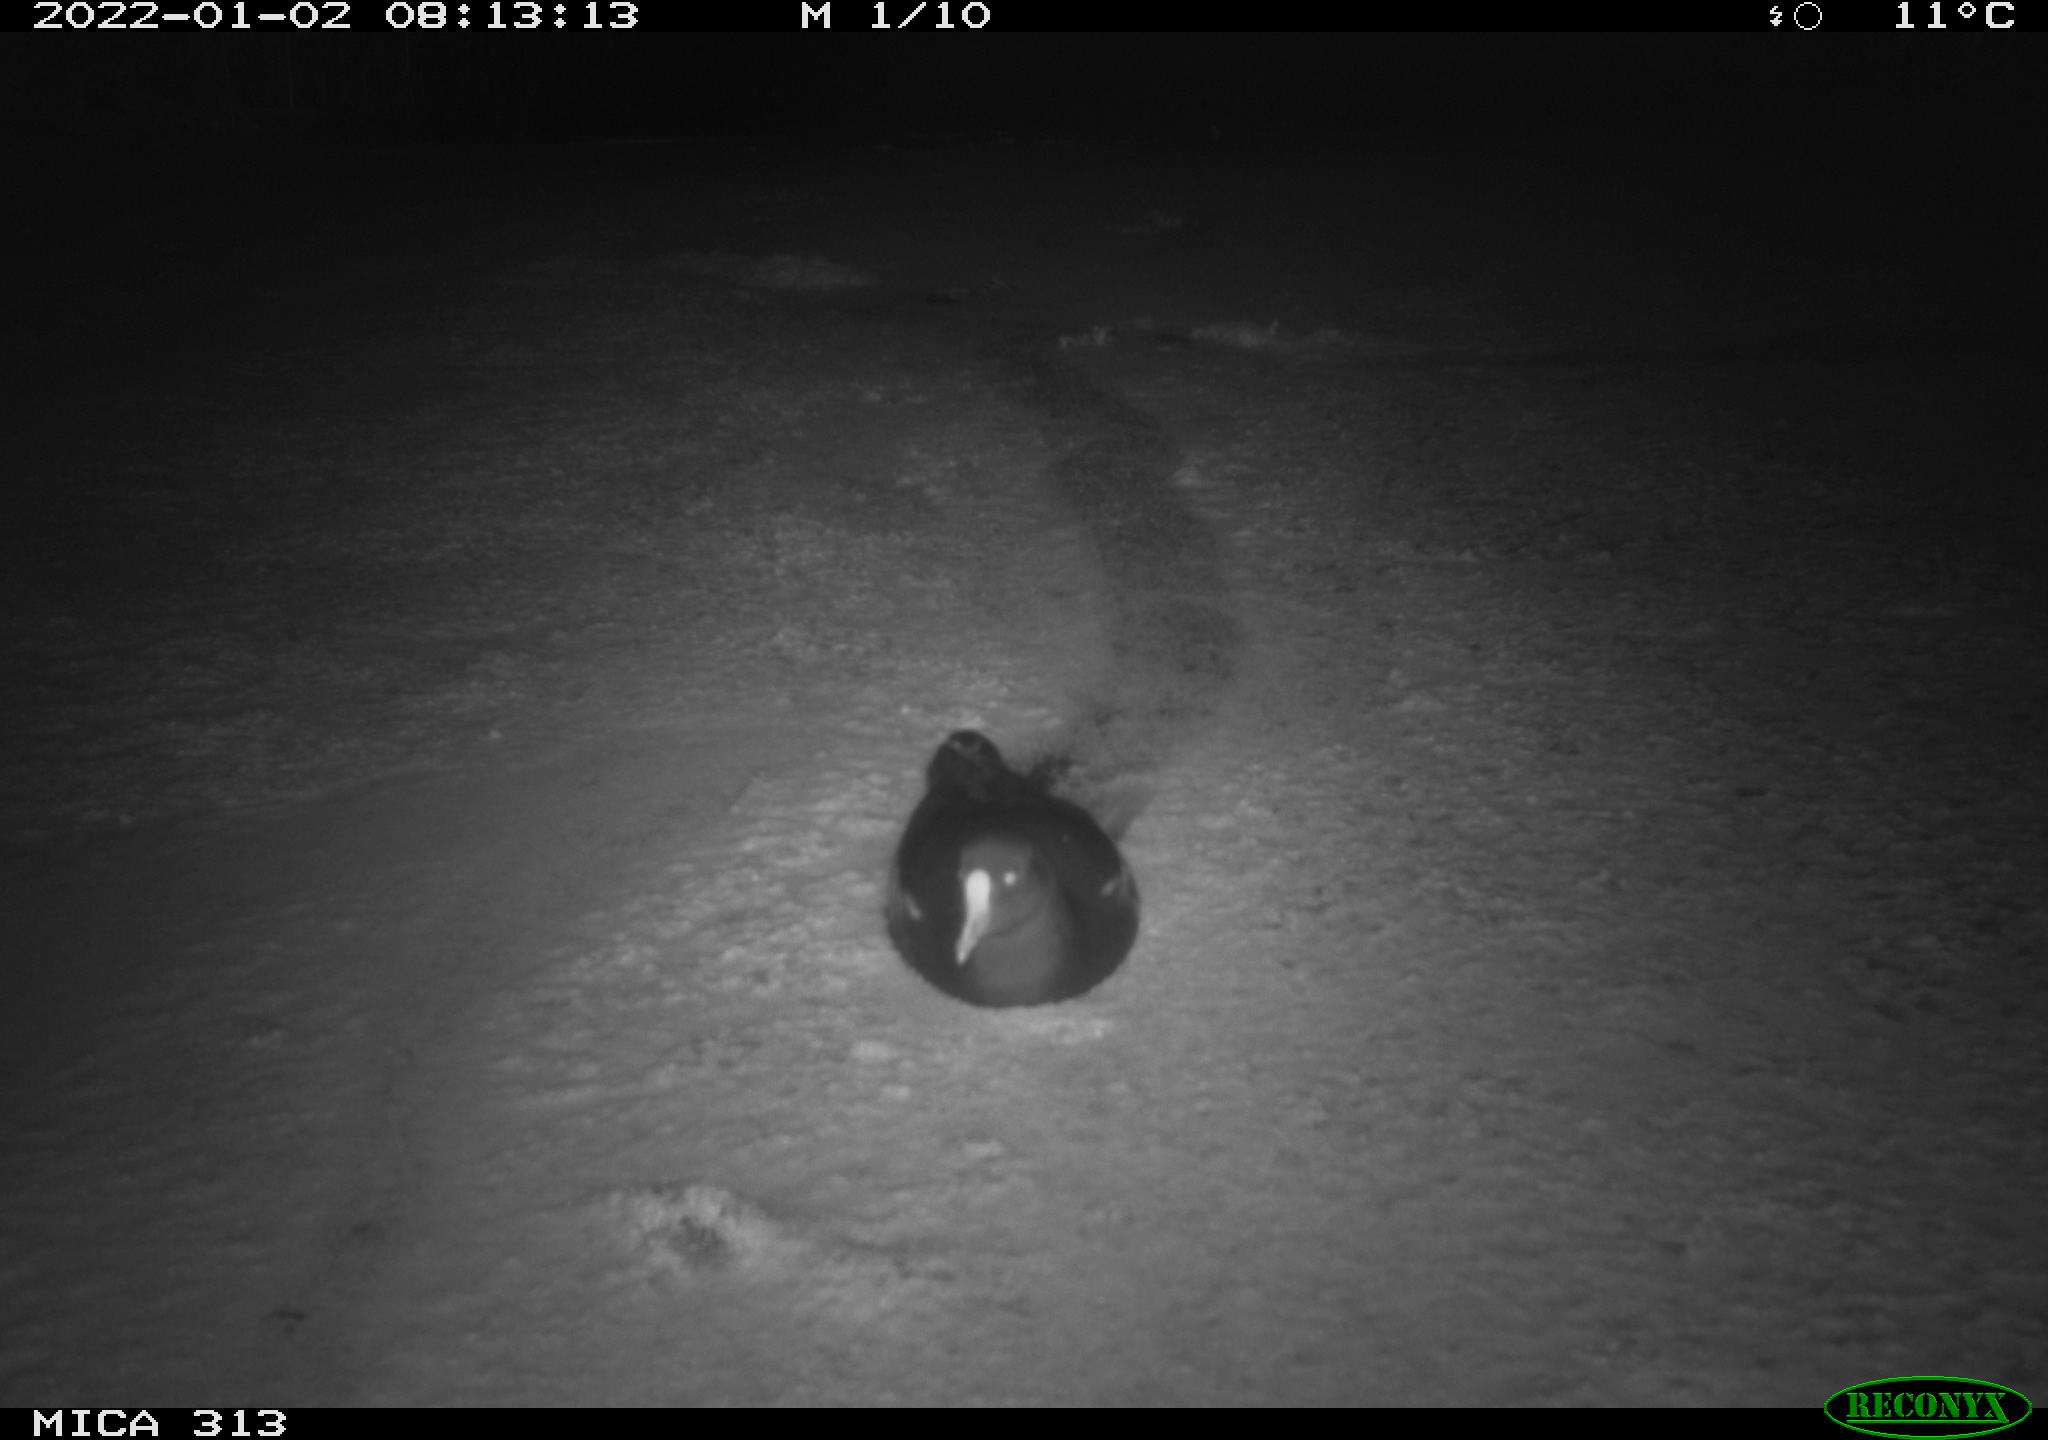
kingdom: Animalia
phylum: Chordata
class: Aves
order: Gruiformes
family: Rallidae
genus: Fulica
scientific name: Fulica atra
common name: Eurasian coot
